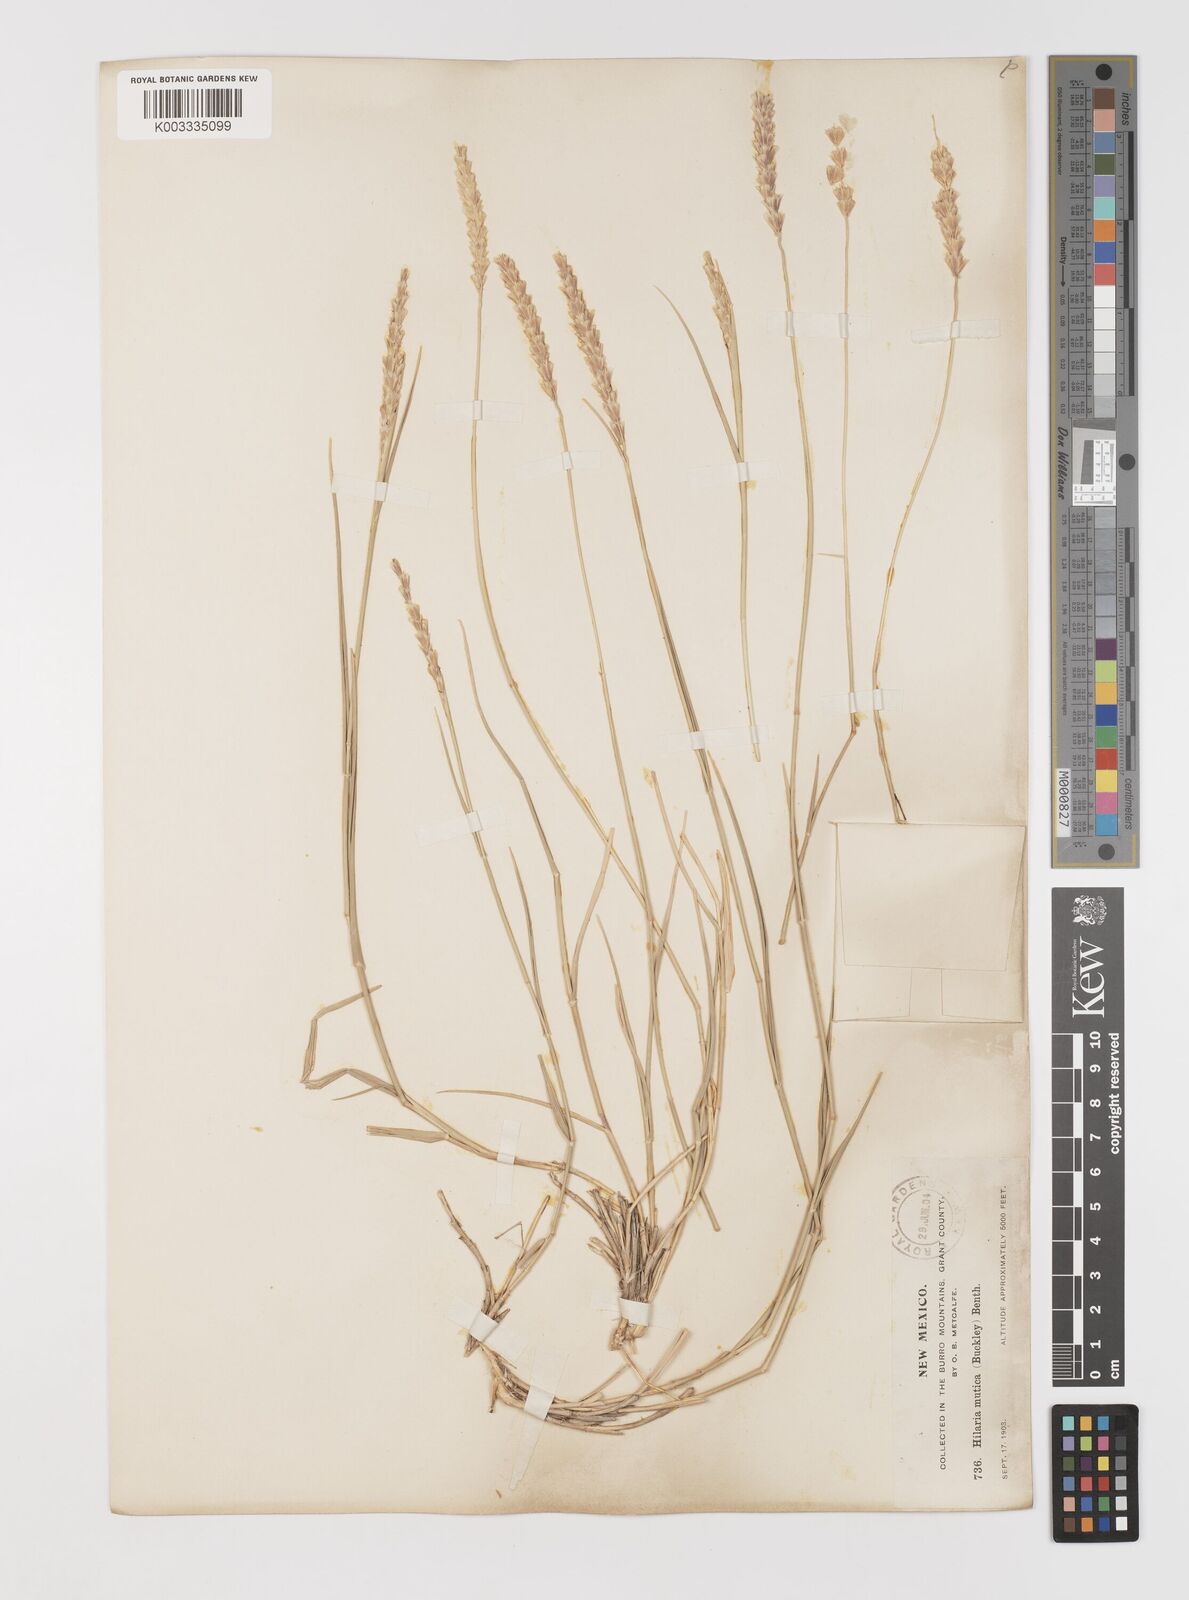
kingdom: Plantae
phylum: Tracheophyta
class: Liliopsida
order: Poales
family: Poaceae
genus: Hilaria
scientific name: Hilaria mutica
